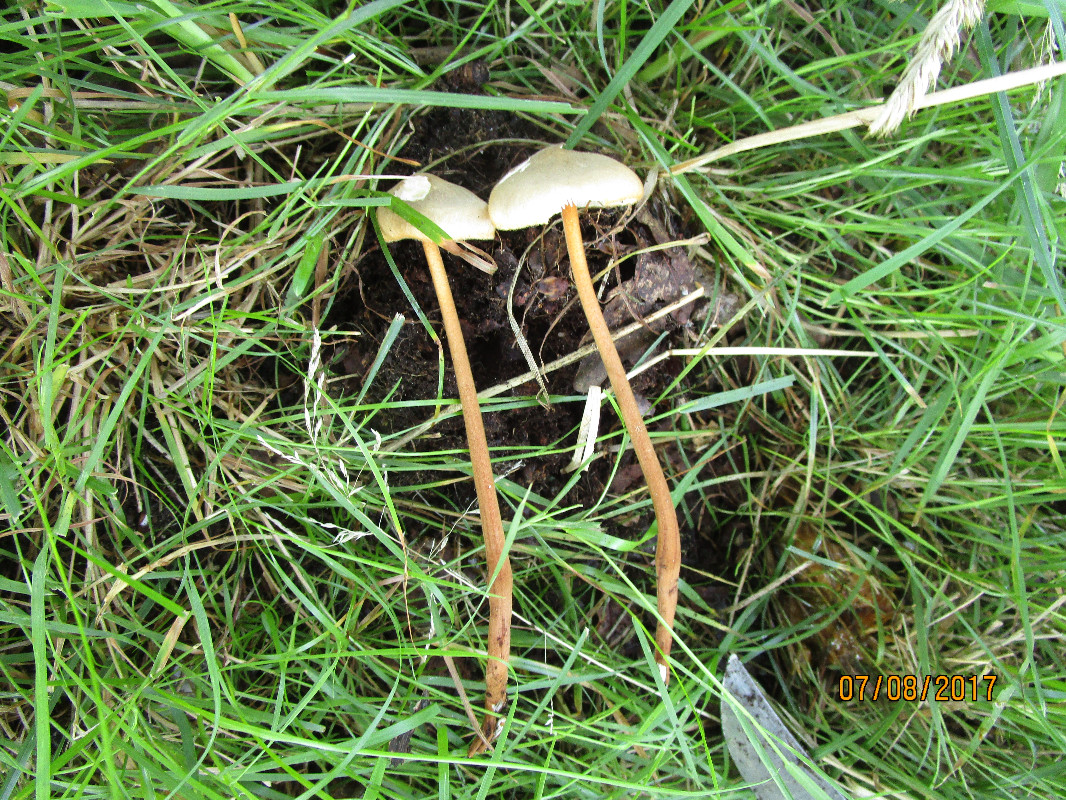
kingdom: Fungi
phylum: Basidiomycota
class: Agaricomycetes
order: Agaricales
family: Physalacriaceae
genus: Xerula
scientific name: Xerula pudens
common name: filtet pælerodshat
